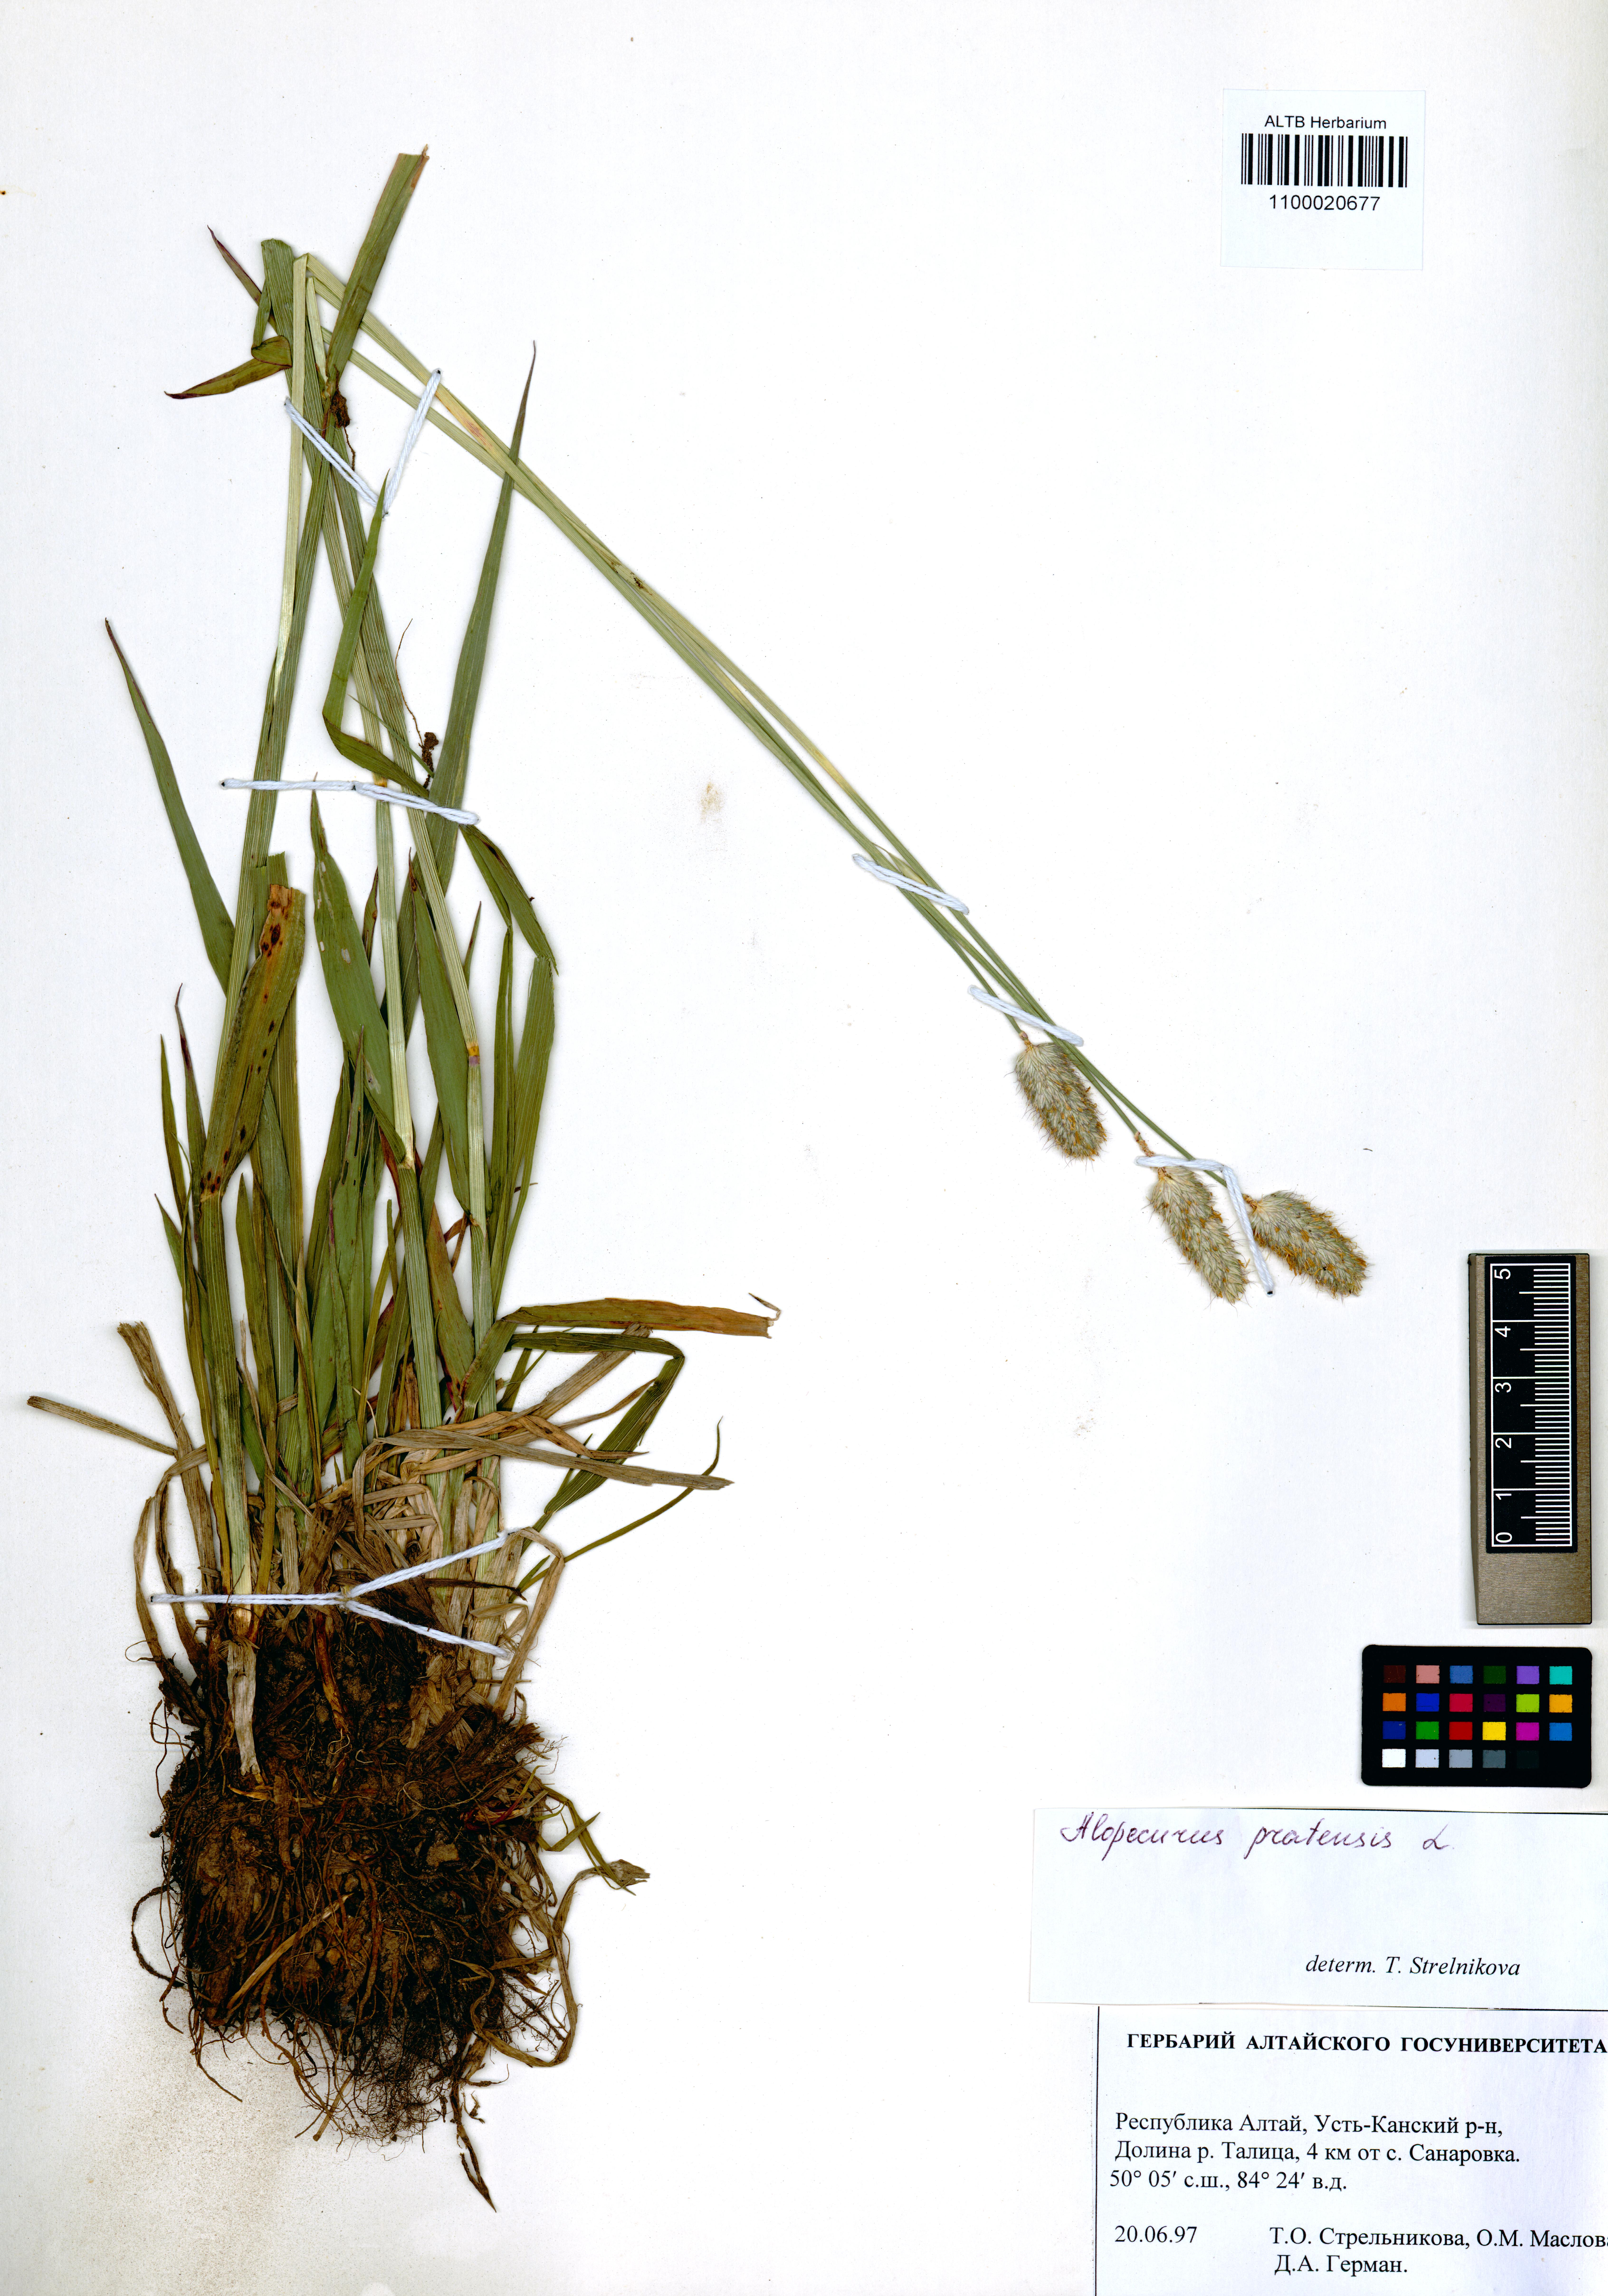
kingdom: Plantae
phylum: Tracheophyta
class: Liliopsida
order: Poales
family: Poaceae
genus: Alopecurus
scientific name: Alopecurus pratensis
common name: Meadow foxtail
